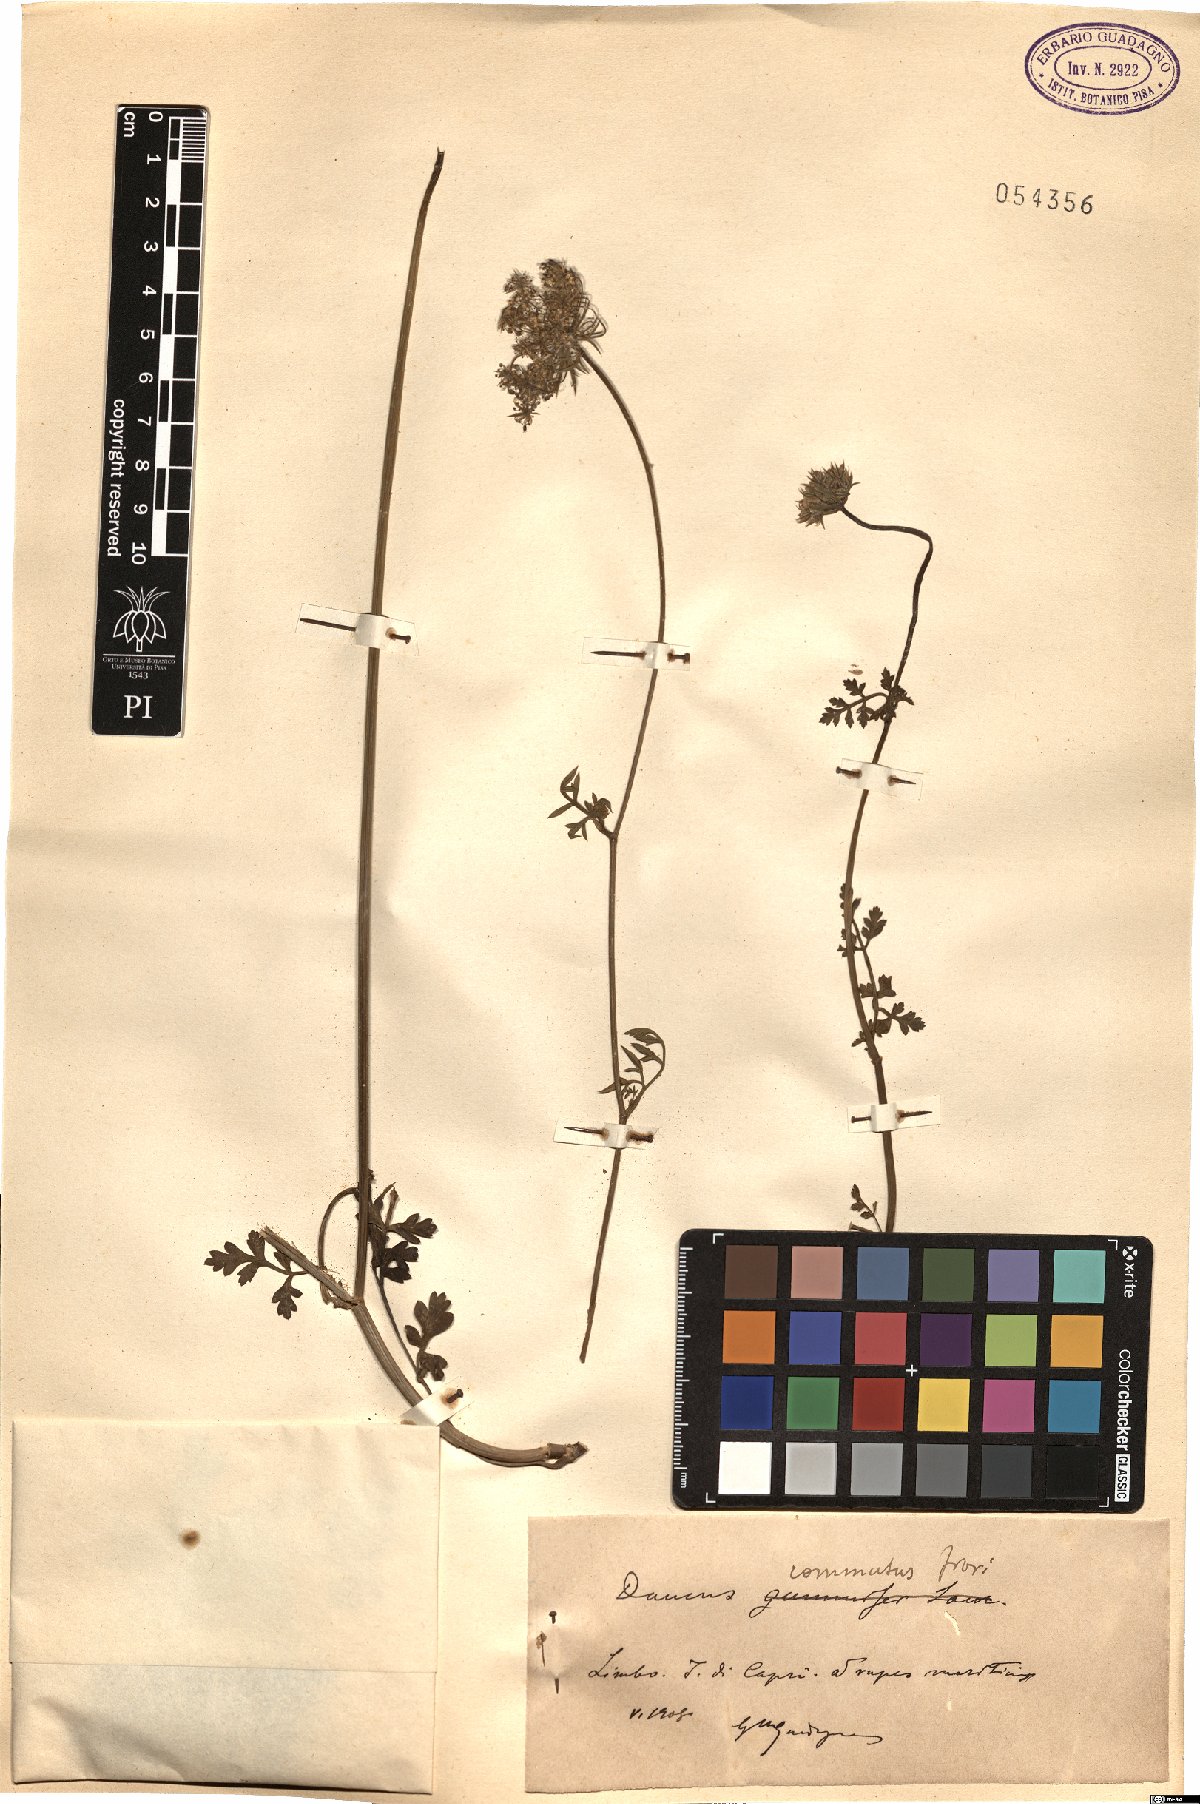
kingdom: Plantae
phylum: Tracheophyta
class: Magnoliopsida
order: Apiales
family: Apiaceae
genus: Daucus
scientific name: Daucus carota
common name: Wild carrot
